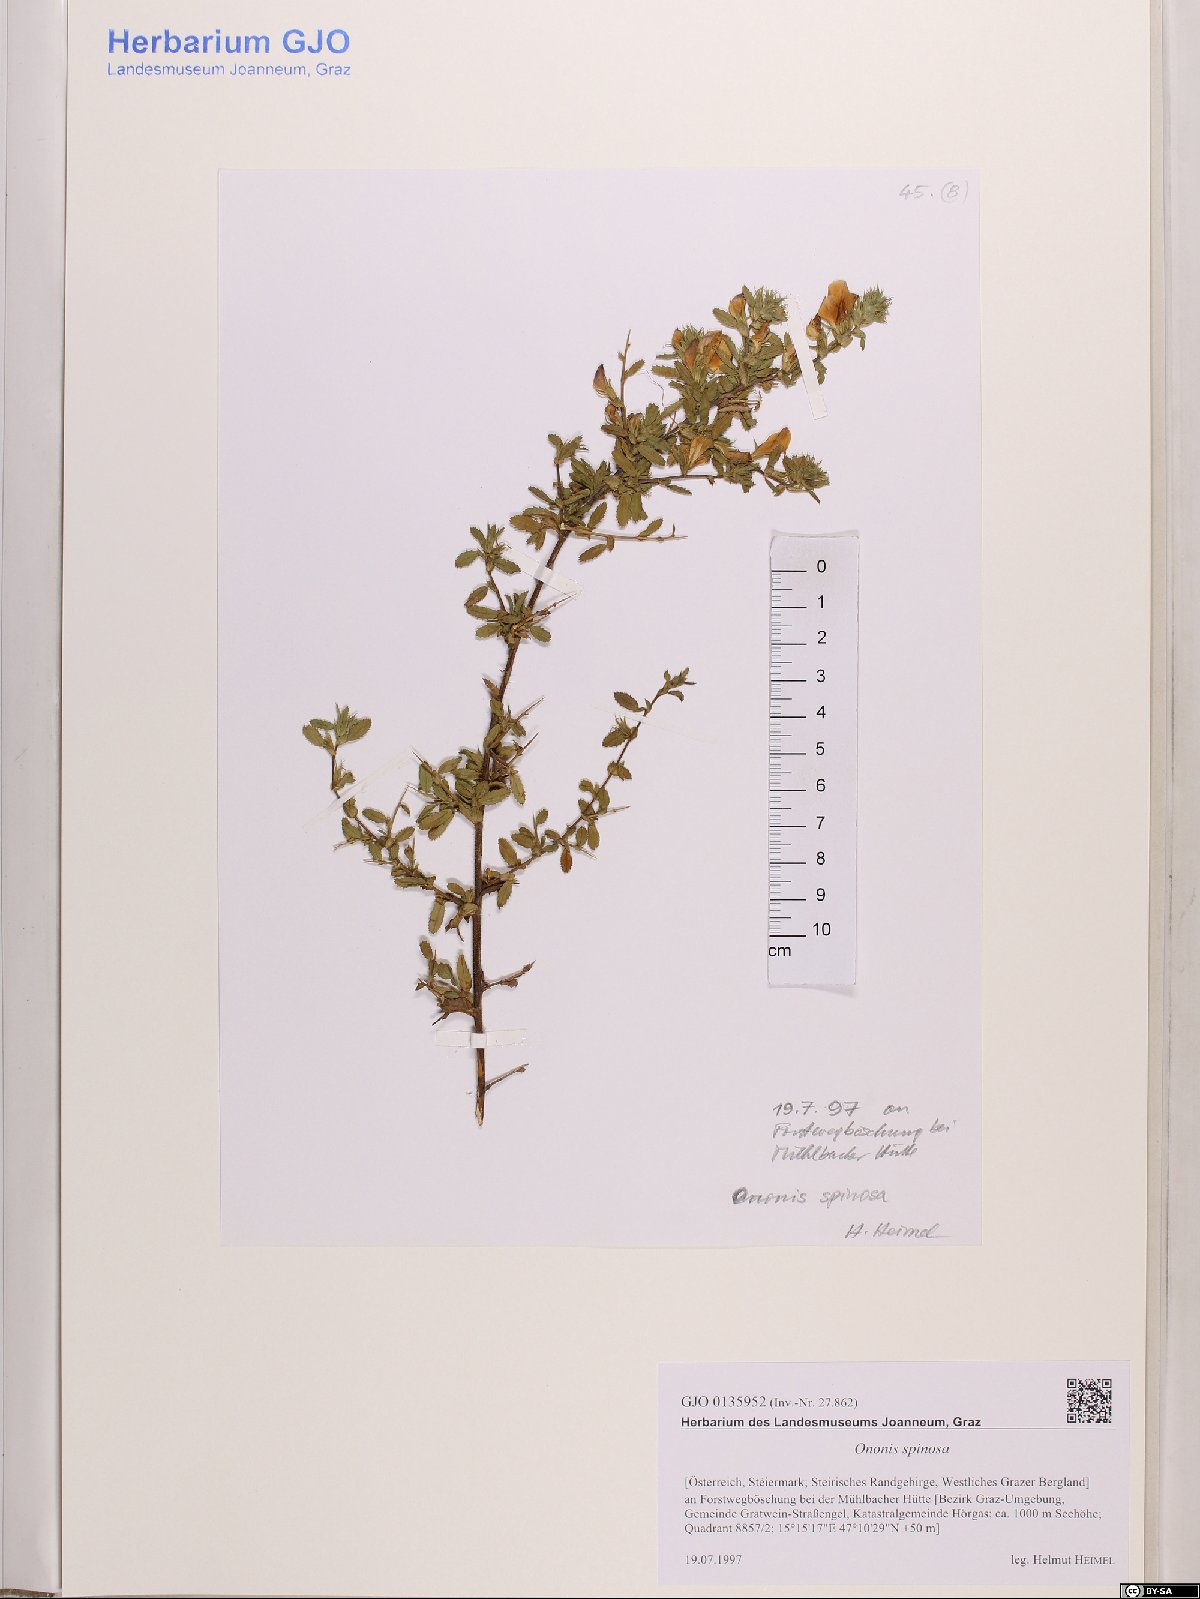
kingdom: Plantae
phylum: Tracheophyta
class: Magnoliopsida
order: Fabales
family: Fabaceae
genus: Ononis
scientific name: Ononis spinosa
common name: Spiny restharrow
